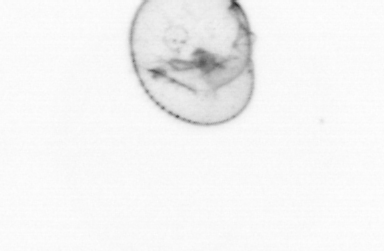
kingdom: Chromista
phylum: Myzozoa
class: Dinophyceae
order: Noctilucales
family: Noctilucaceae
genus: Noctiluca
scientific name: Noctiluca scintillans
